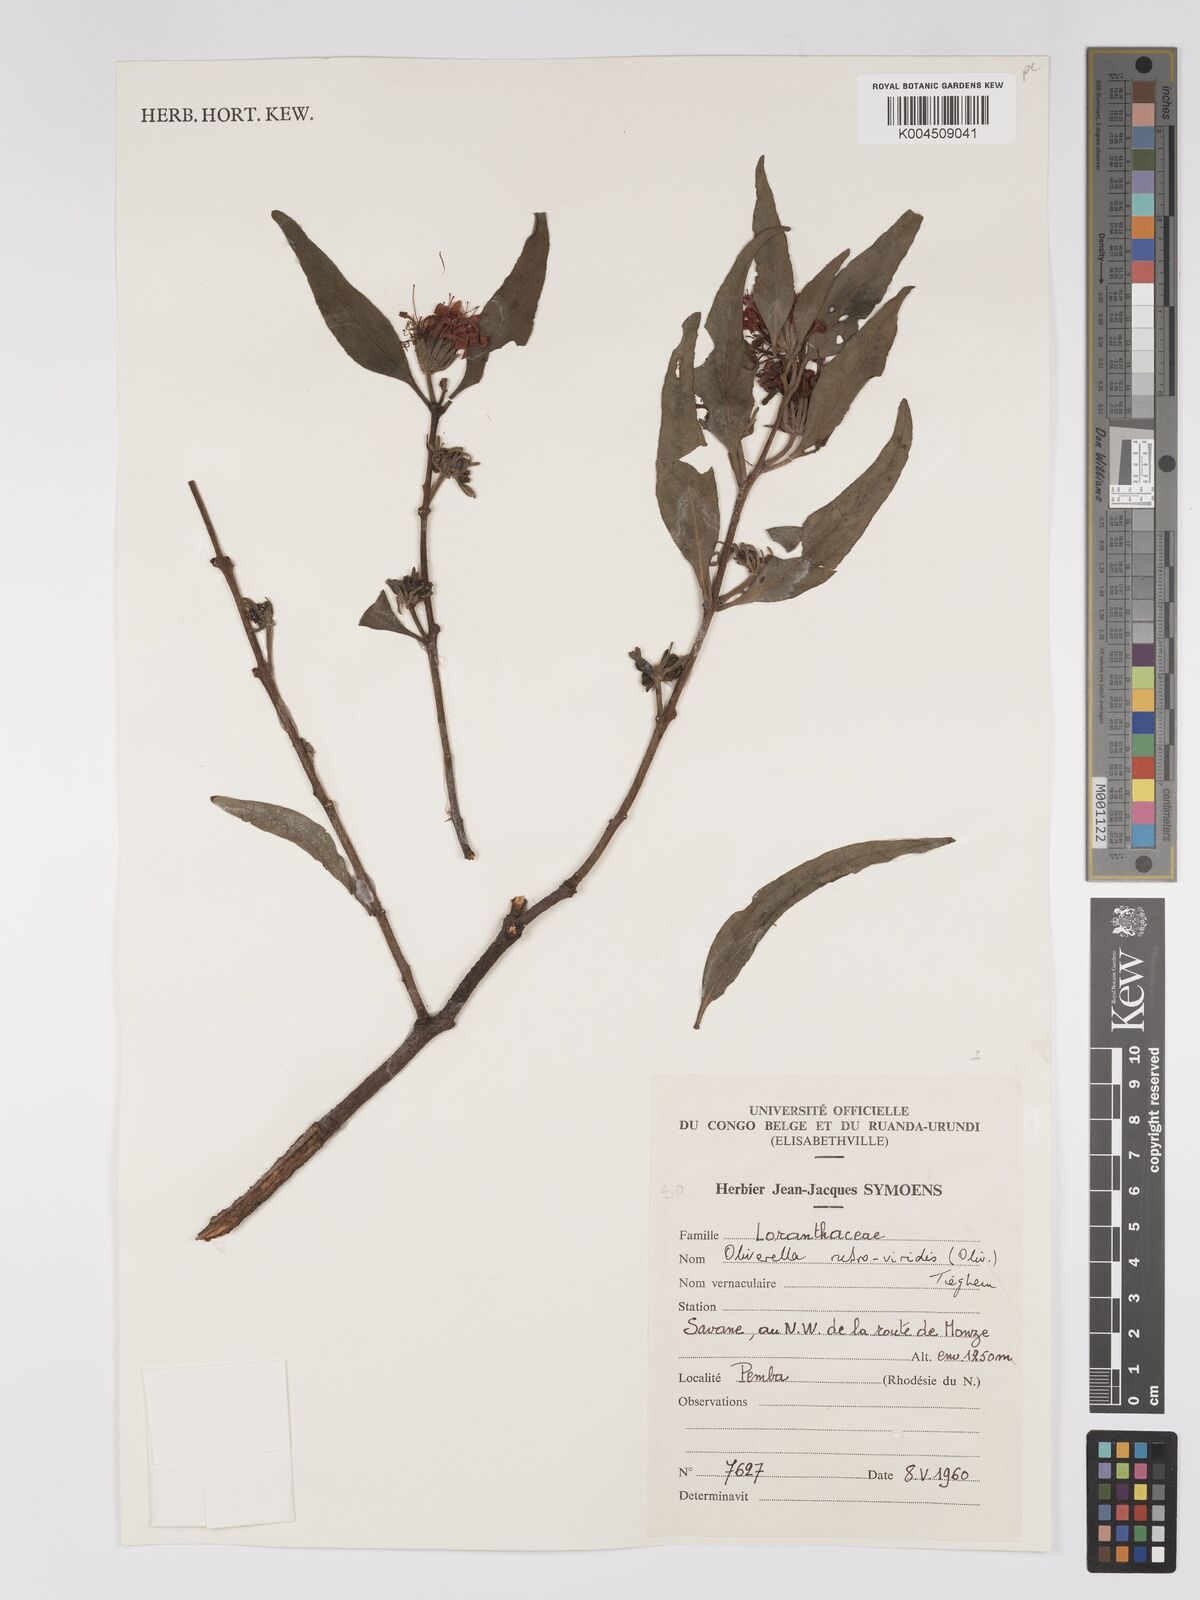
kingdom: Plantae
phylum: Tracheophyta
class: Magnoliopsida
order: Santalales
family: Loranthaceae
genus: Oliverella
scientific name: Oliverella rubroviridis
